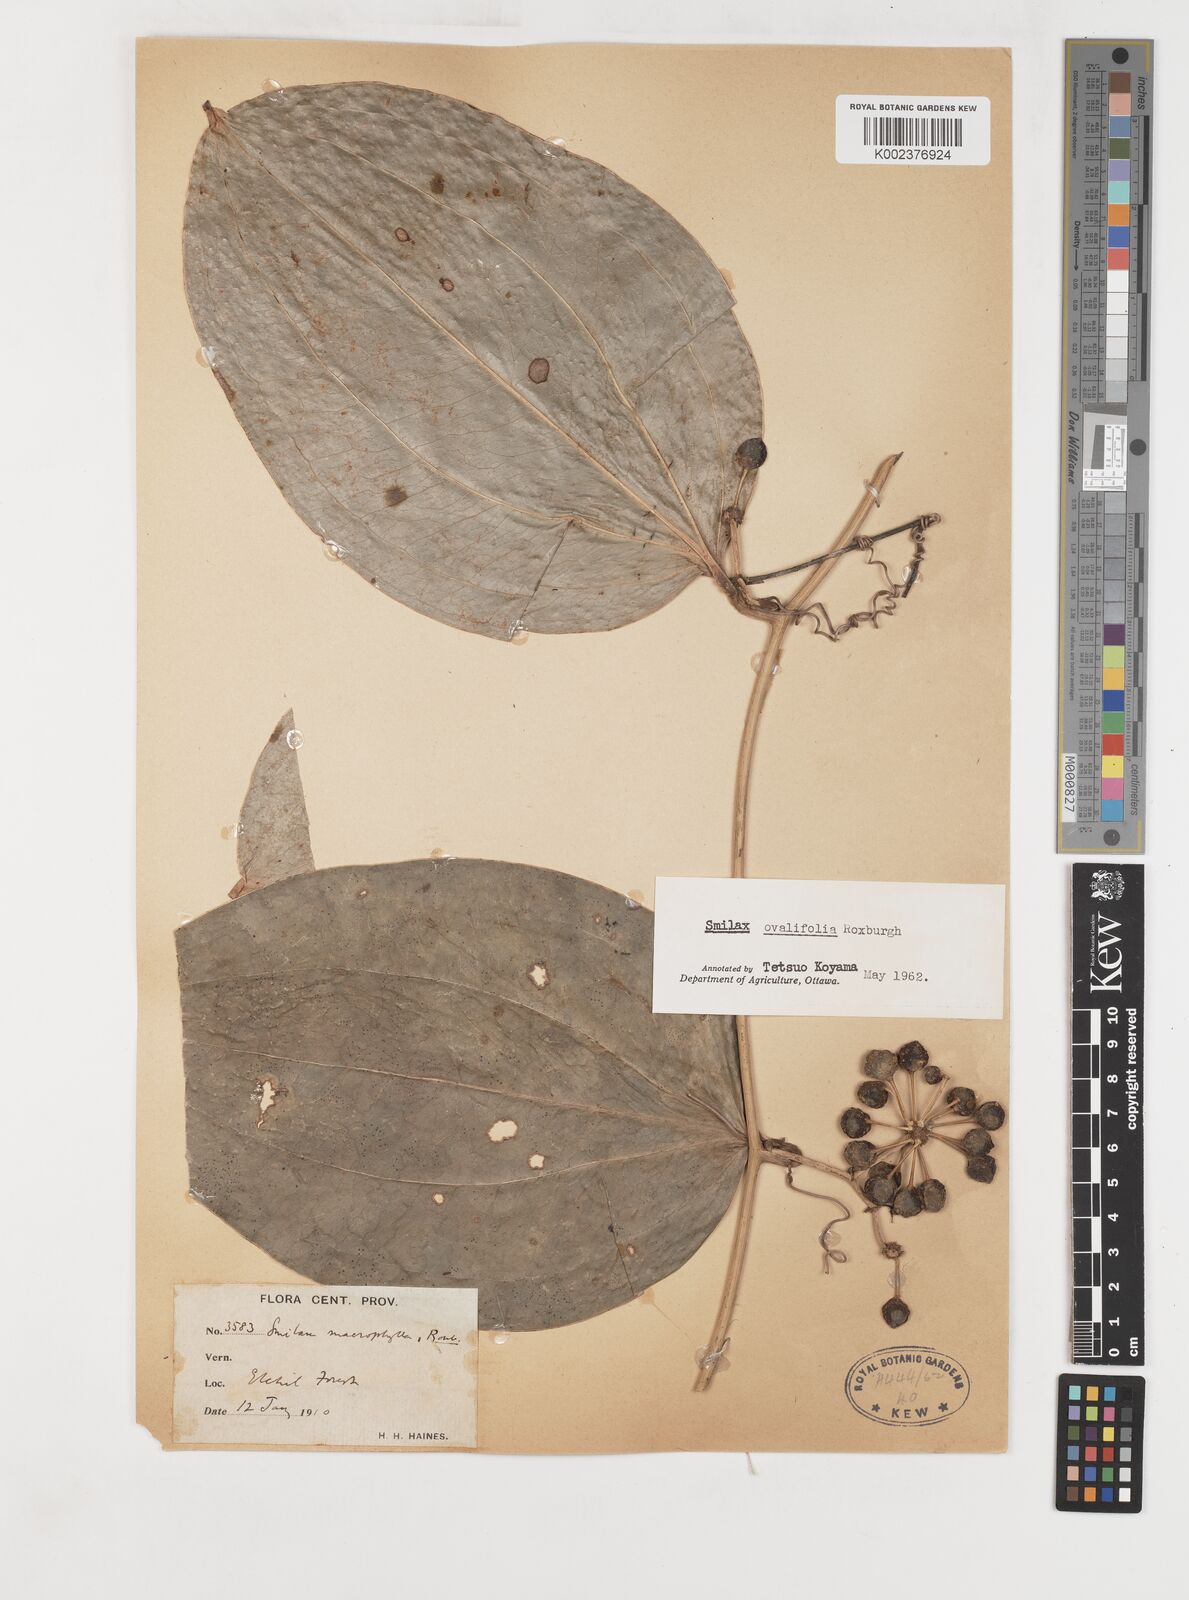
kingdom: Plantae
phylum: Tracheophyta
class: Liliopsida
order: Liliales
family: Smilacaceae
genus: Smilax
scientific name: Smilax ovalifolia
